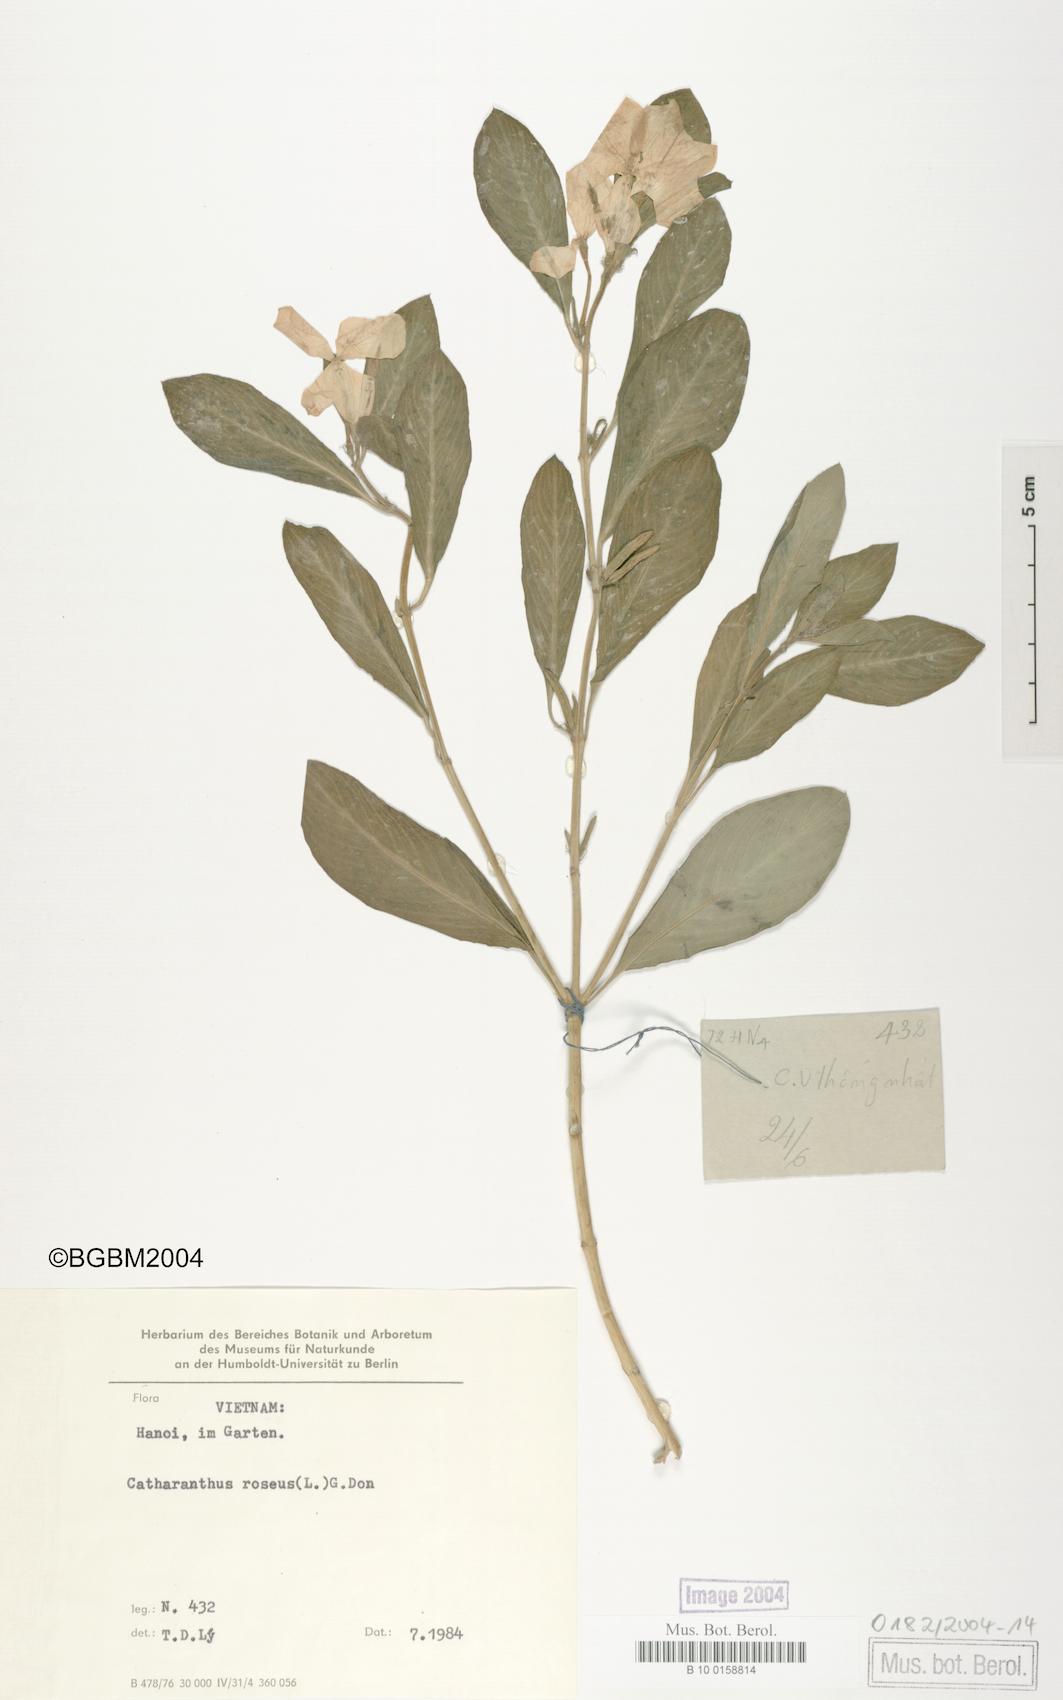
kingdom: Plantae
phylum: Tracheophyta
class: Magnoliopsida
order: Gentianales
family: Apocynaceae
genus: Catharanthus
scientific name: Catharanthus roseus
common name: Madagascar periwinkle
